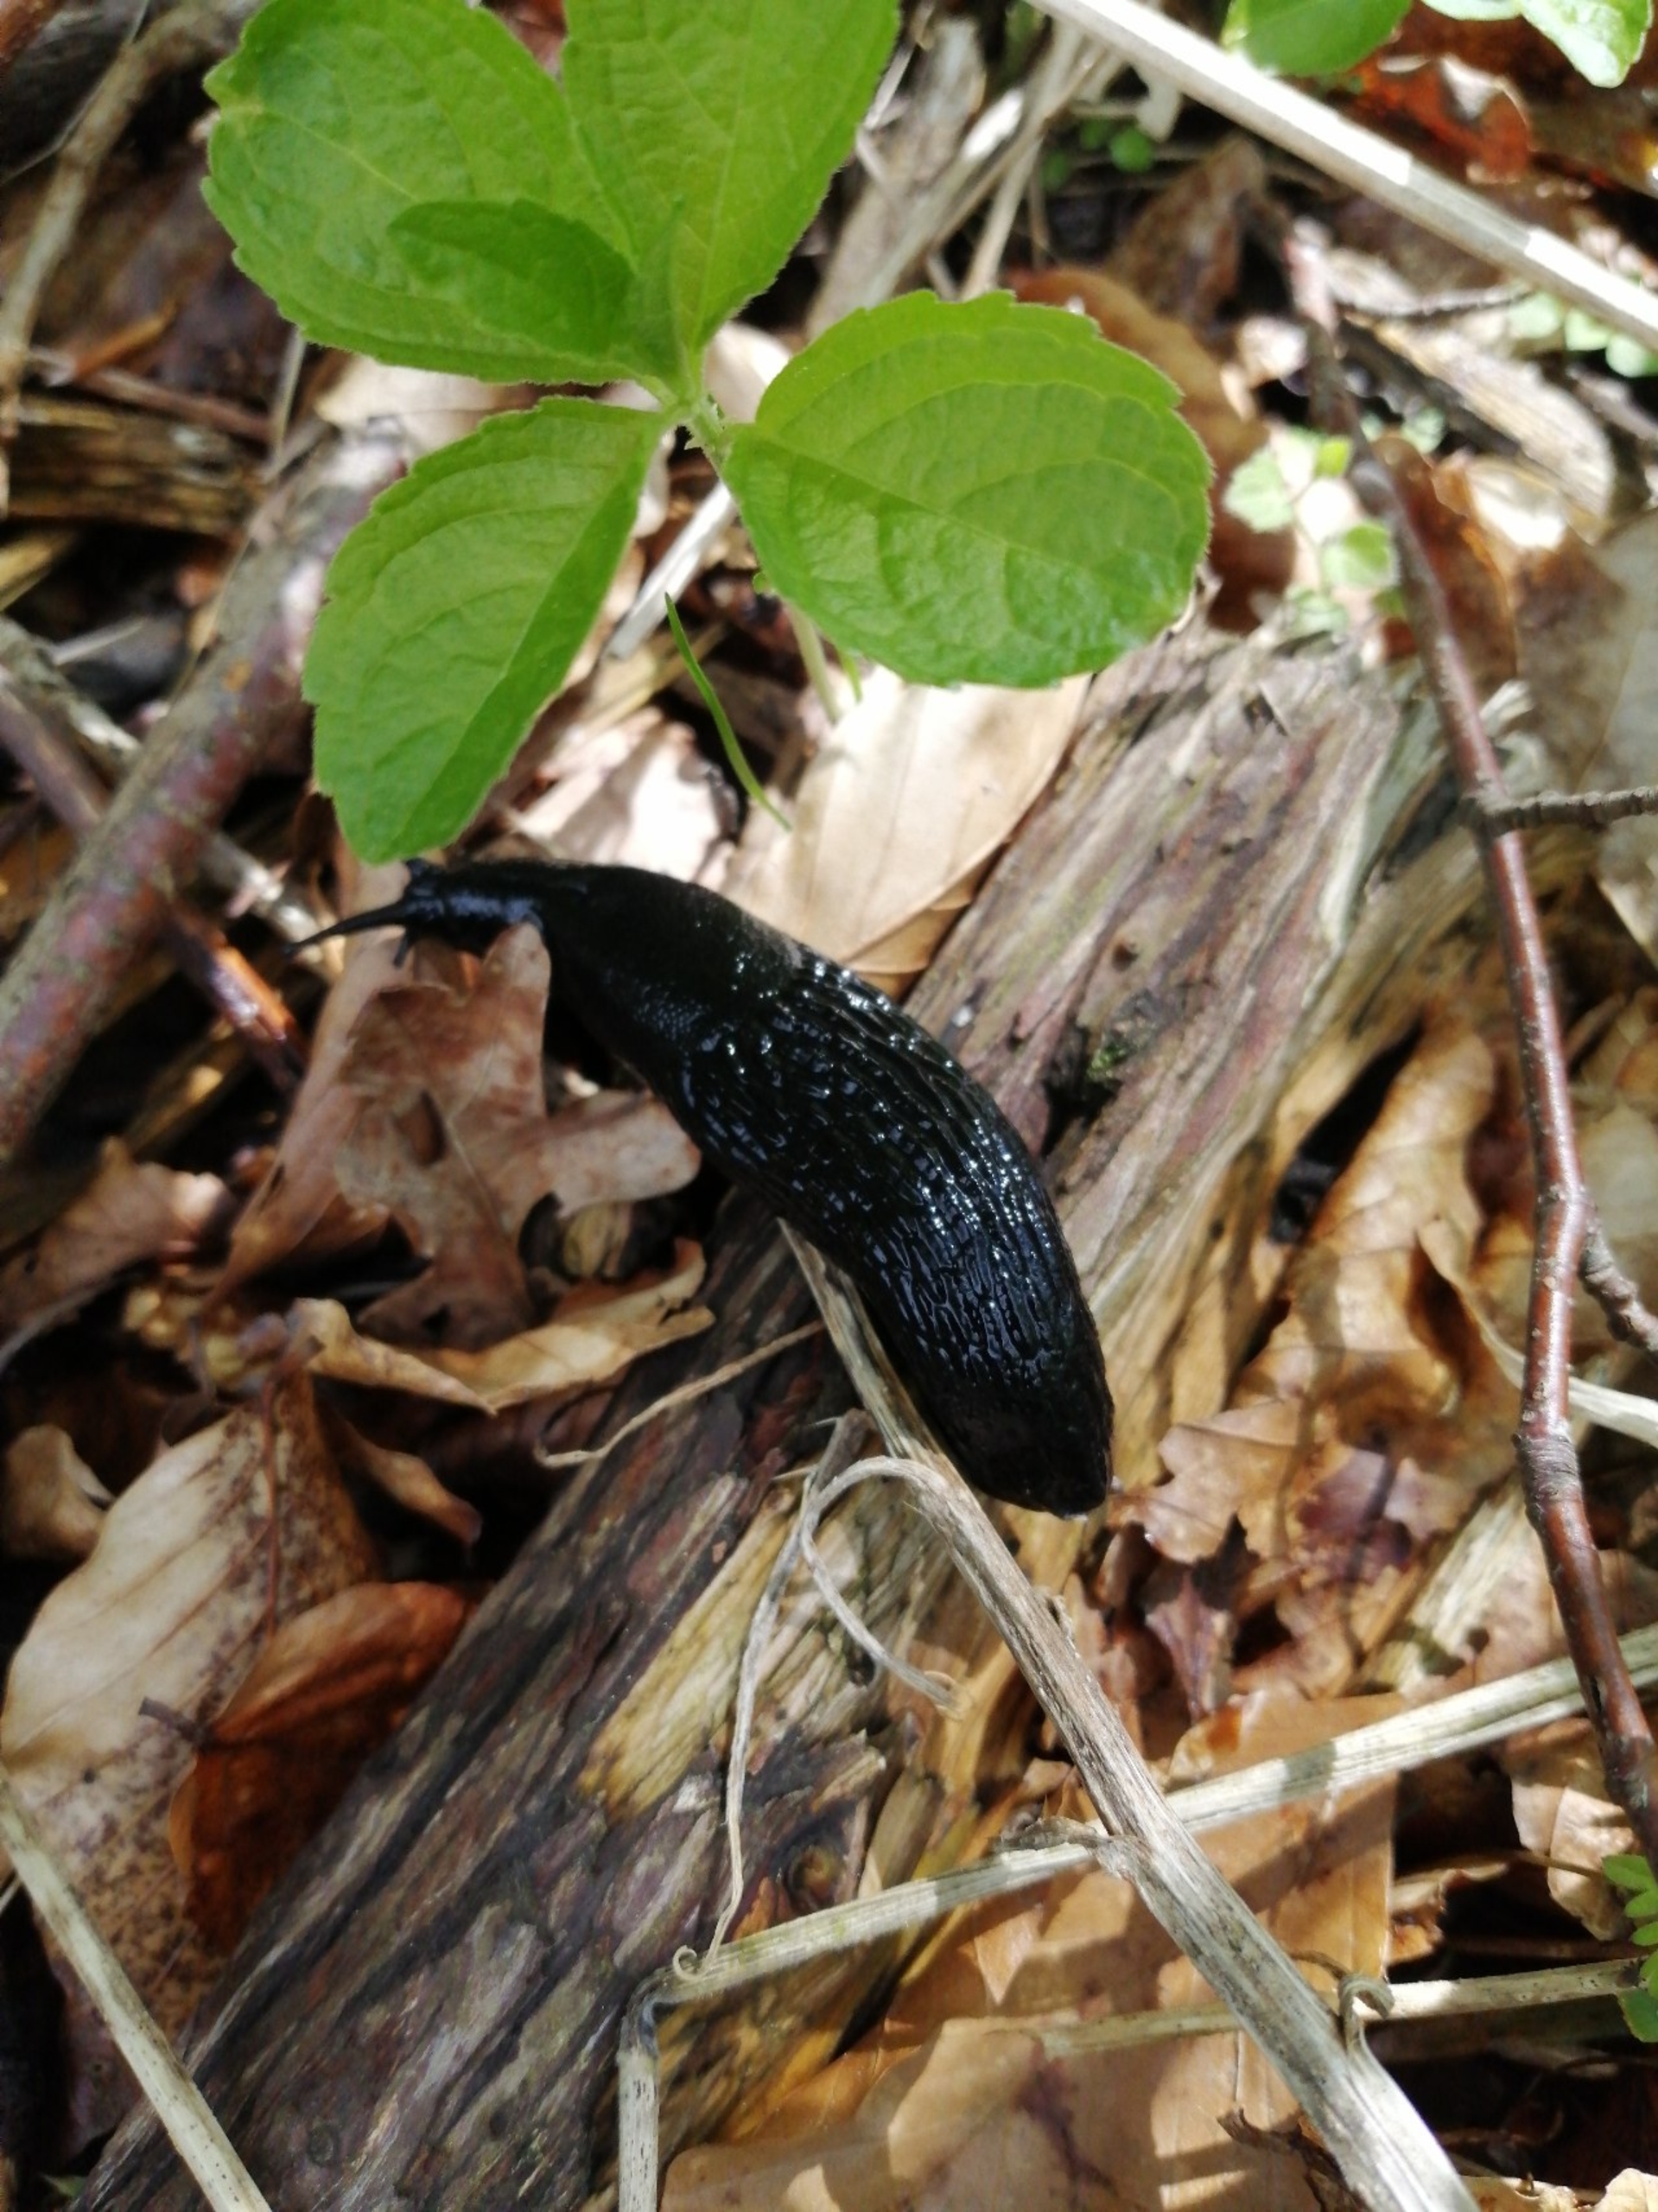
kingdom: Animalia
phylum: Mollusca
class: Gastropoda
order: Stylommatophora
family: Arionidae
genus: Arion
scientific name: Arion ater
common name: Sort skovsnegl
